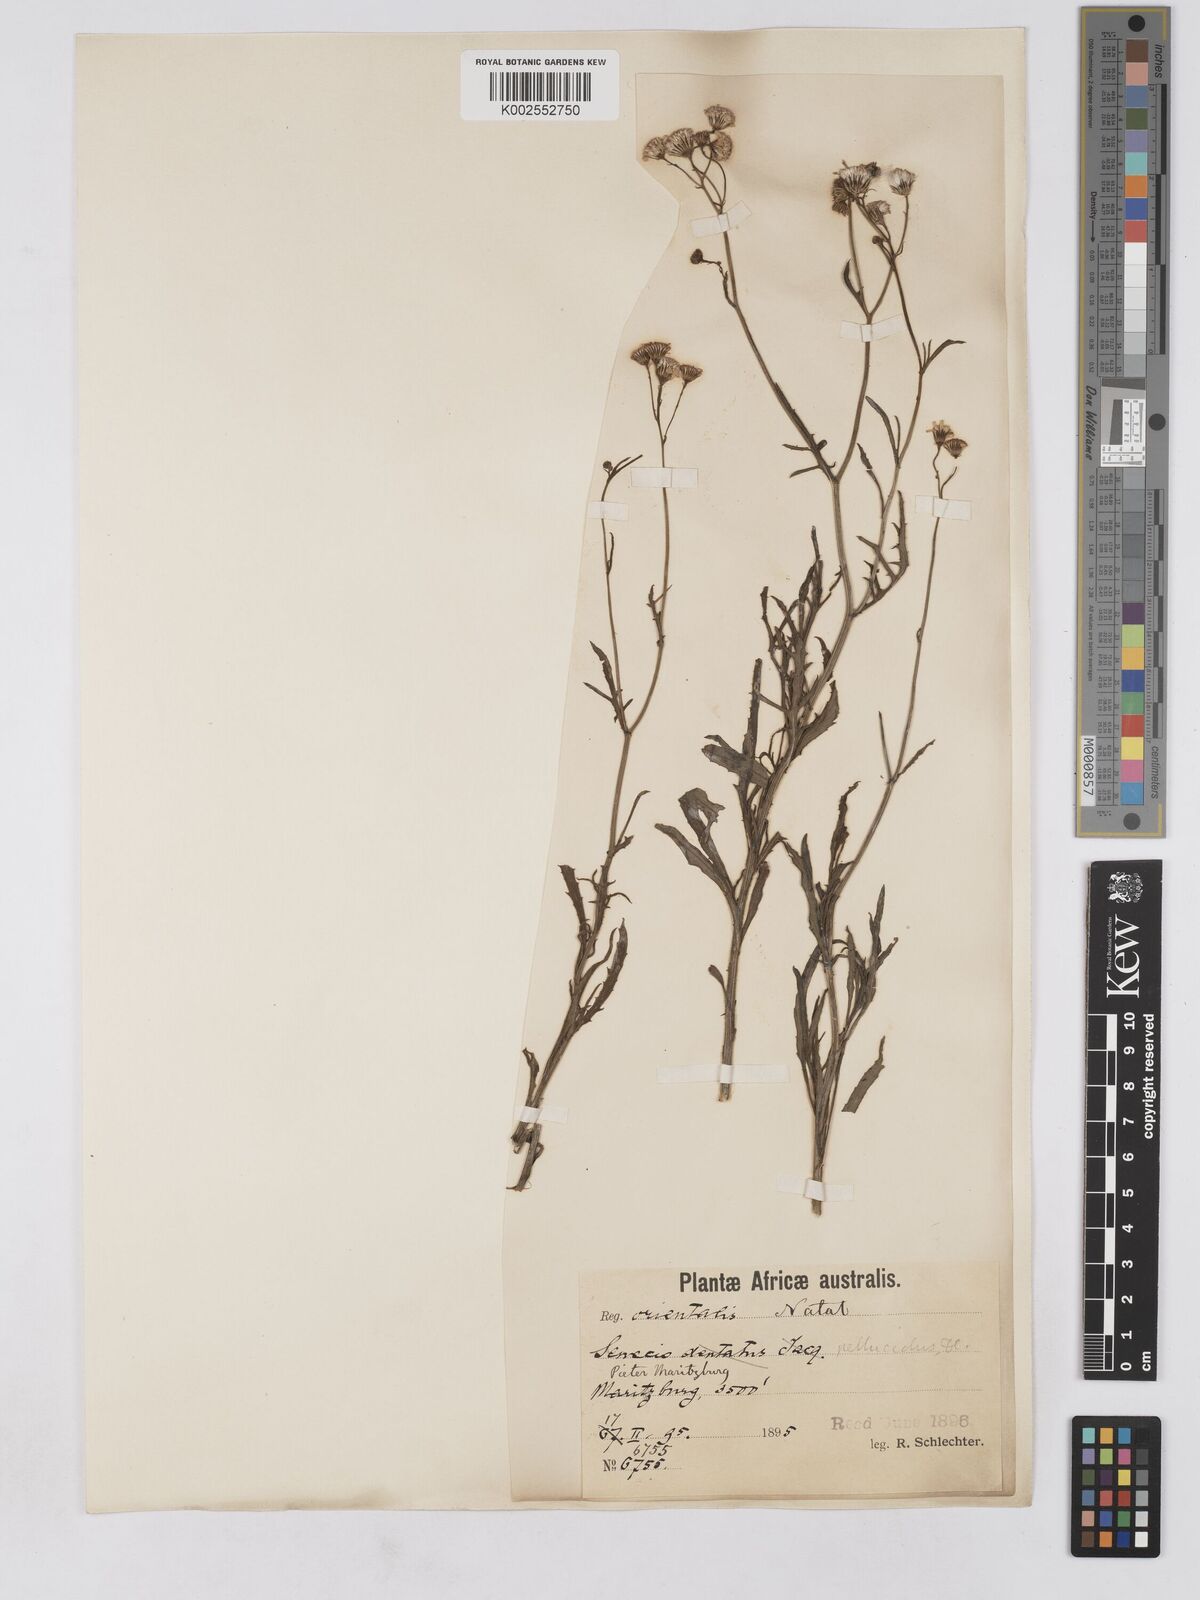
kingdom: Plantae
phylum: Tracheophyta
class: Magnoliopsida
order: Asterales
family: Asteraceae
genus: Senecio
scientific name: Senecio madagascariensis
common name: Madagascar ragwort
